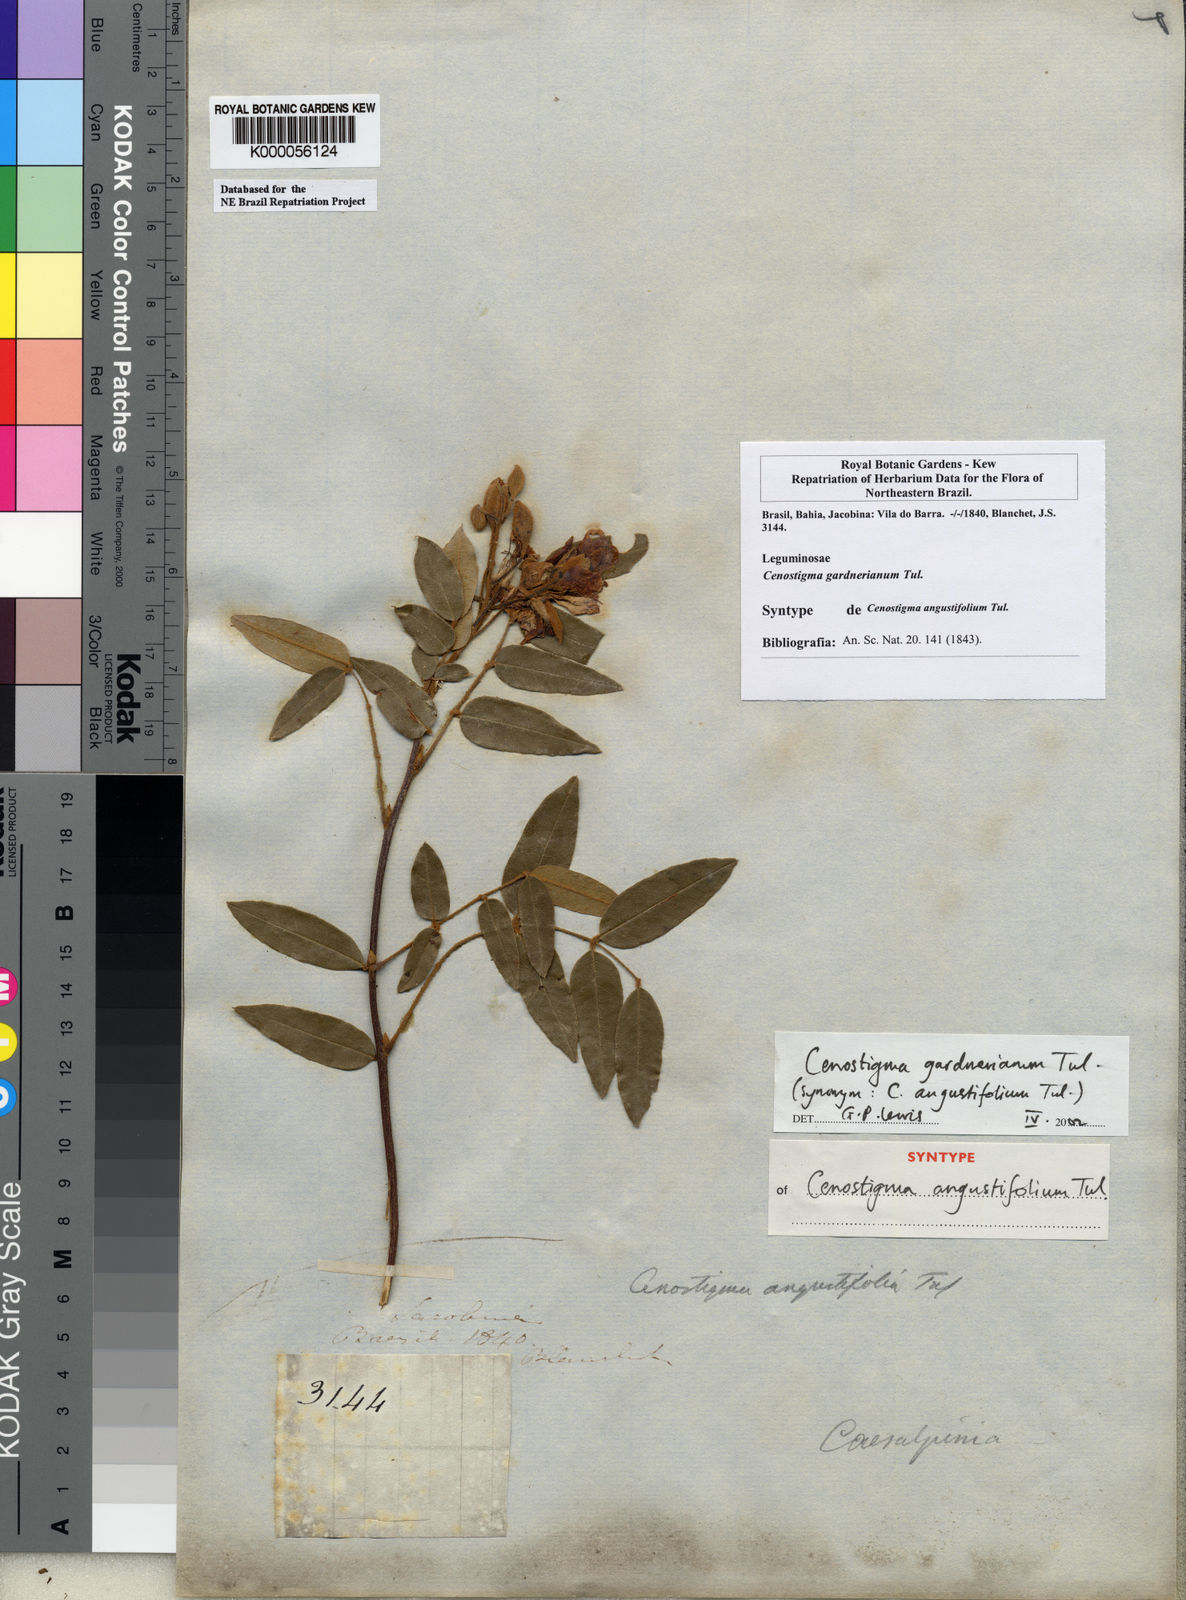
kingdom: Plantae
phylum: Tracheophyta
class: Magnoliopsida
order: Fabales
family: Fabaceae
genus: Cenostigma
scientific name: Cenostigma macrophyllum
